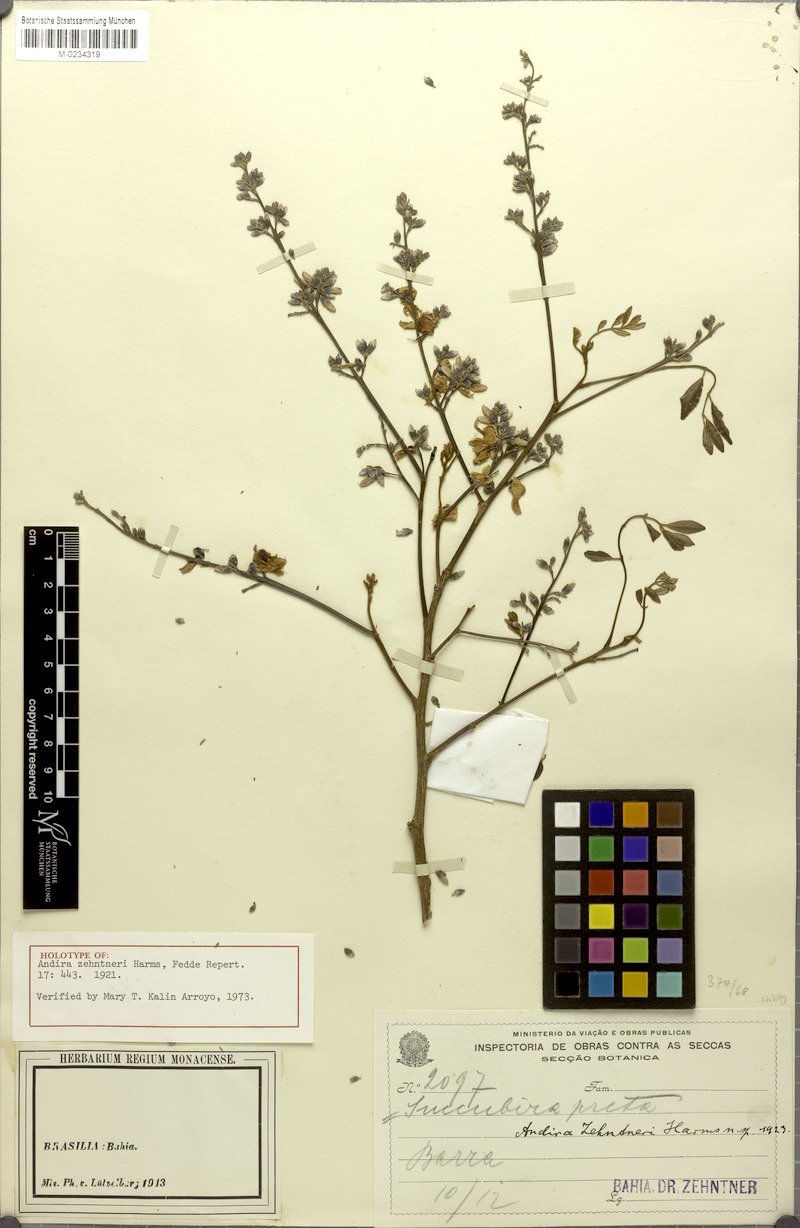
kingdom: Plantae
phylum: Tracheophyta
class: Magnoliopsida
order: Fabales
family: Fabaceae
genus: Andira
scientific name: Andira zehntneri
